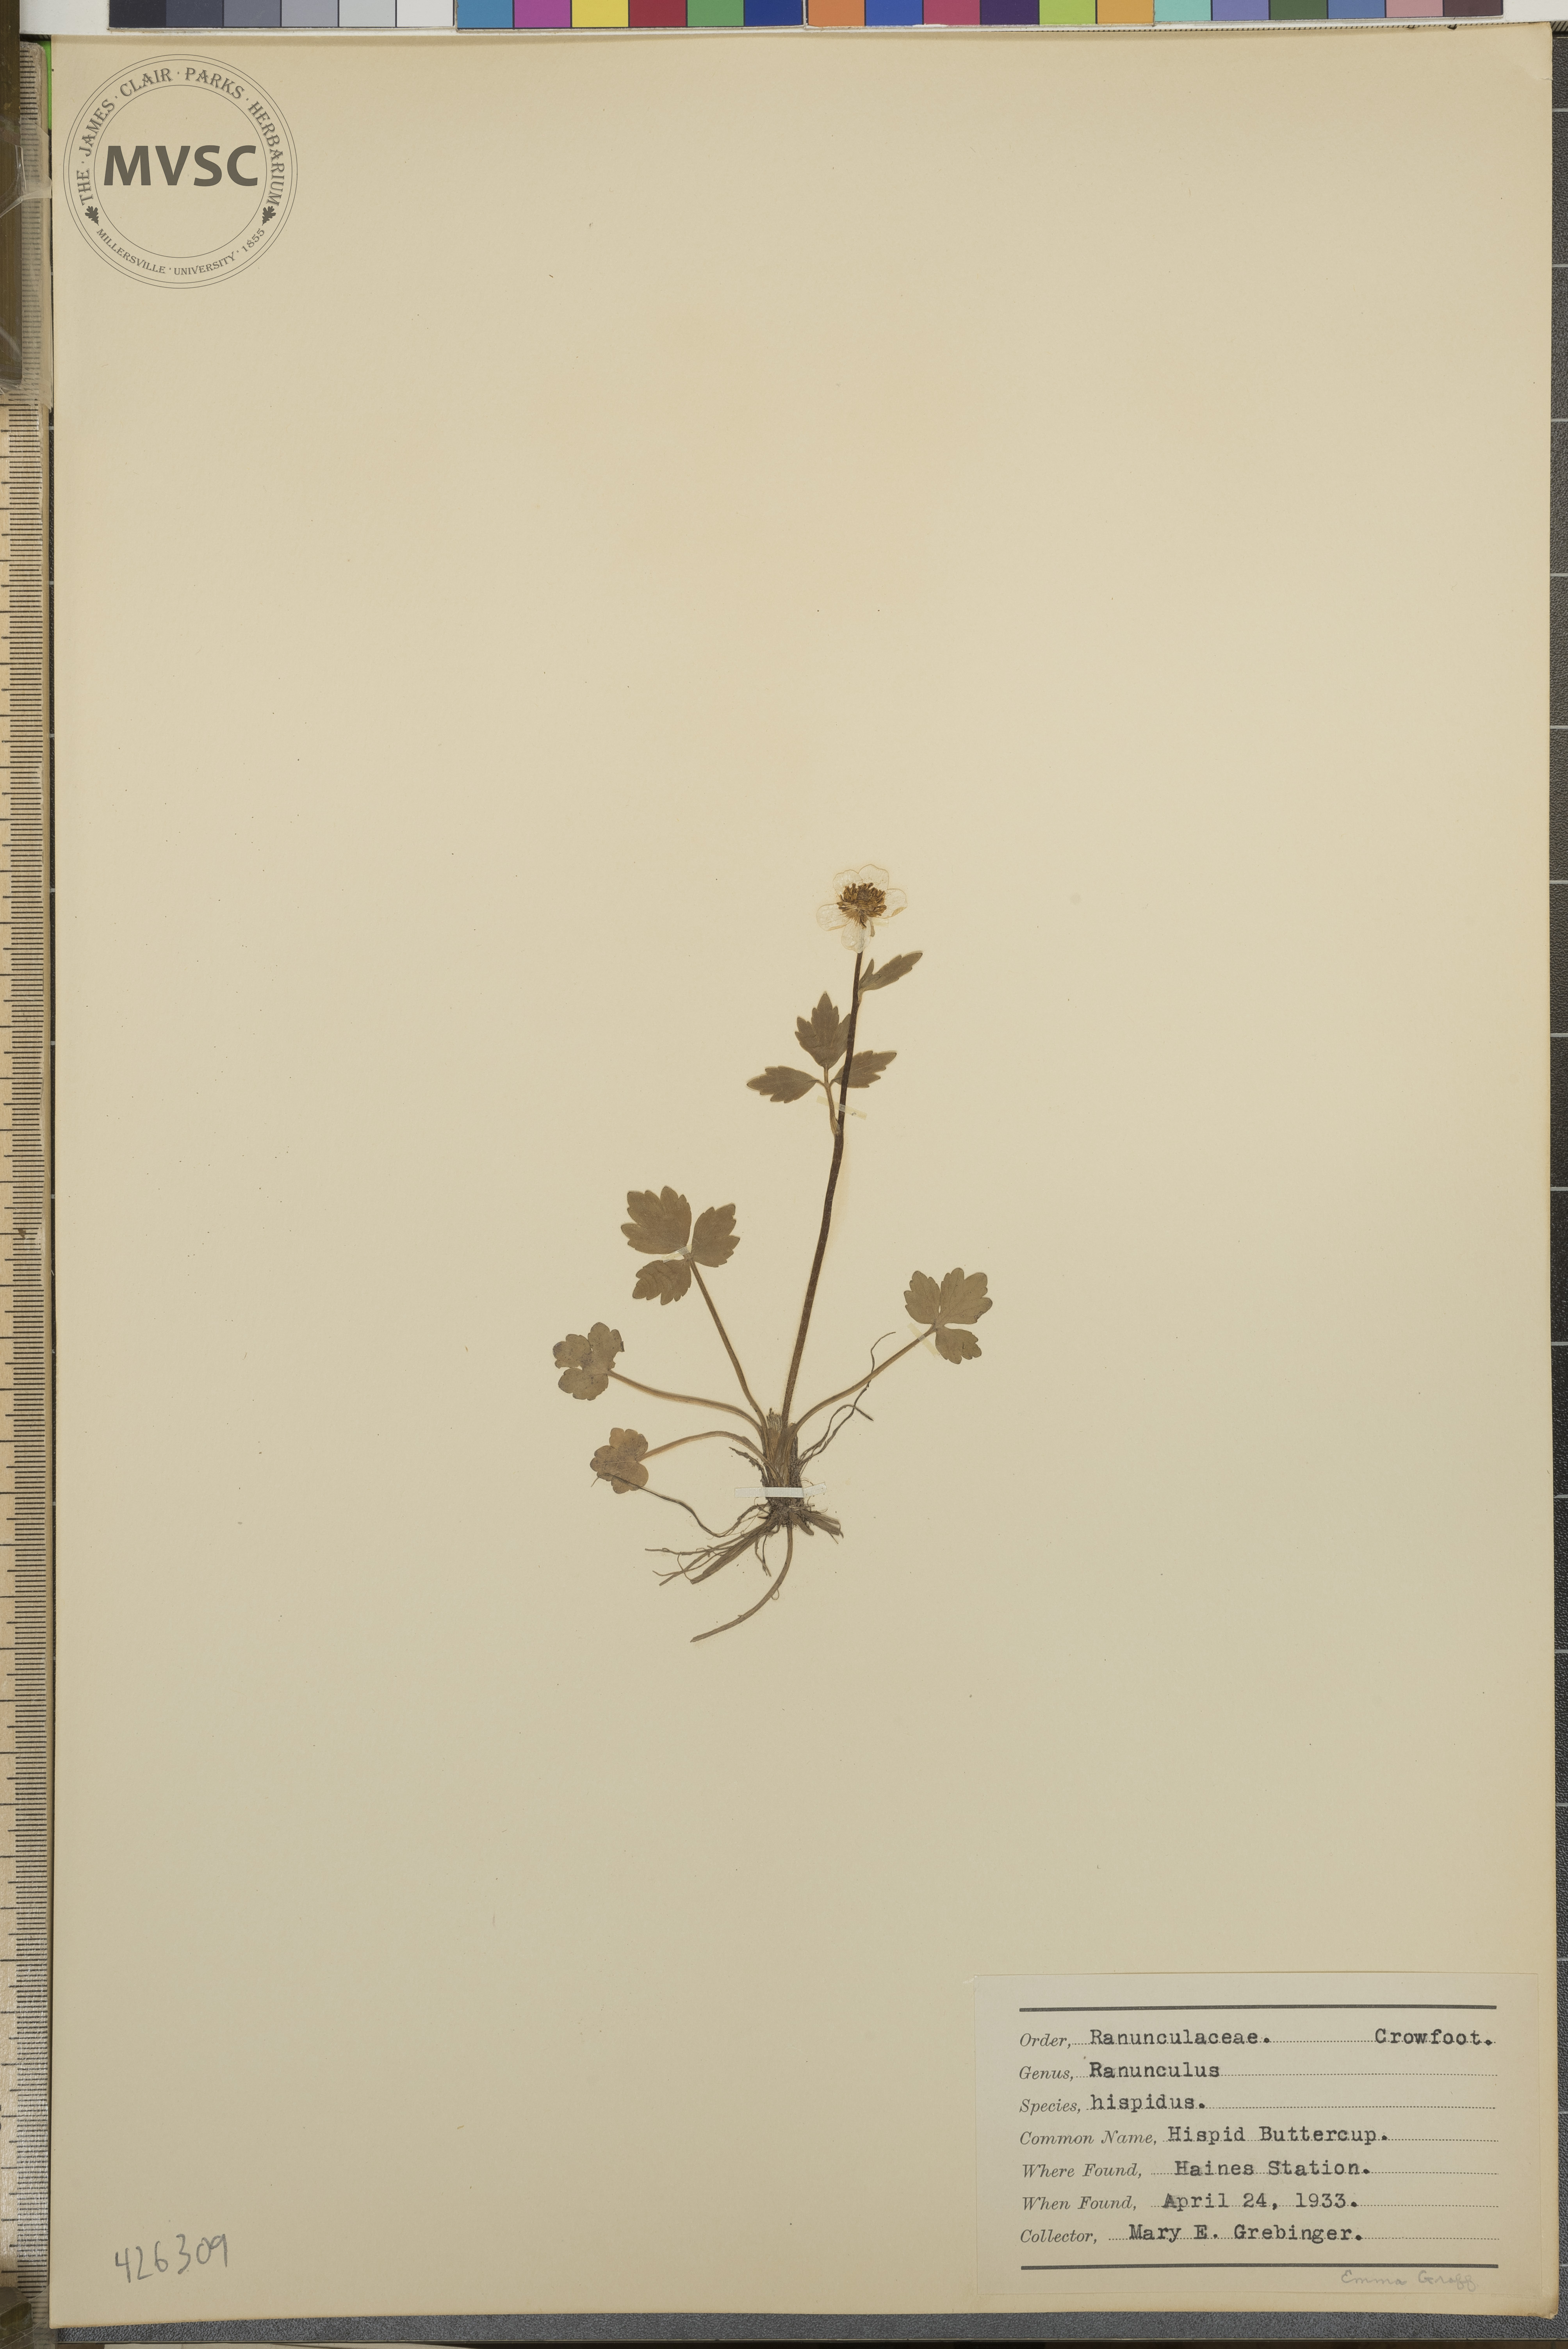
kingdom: Plantae
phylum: Tracheophyta
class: Magnoliopsida
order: Ranunculales
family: Ranunculaceae
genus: Ranunculus
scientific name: Ranunculus hispidus
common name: Hispid Buttercup
